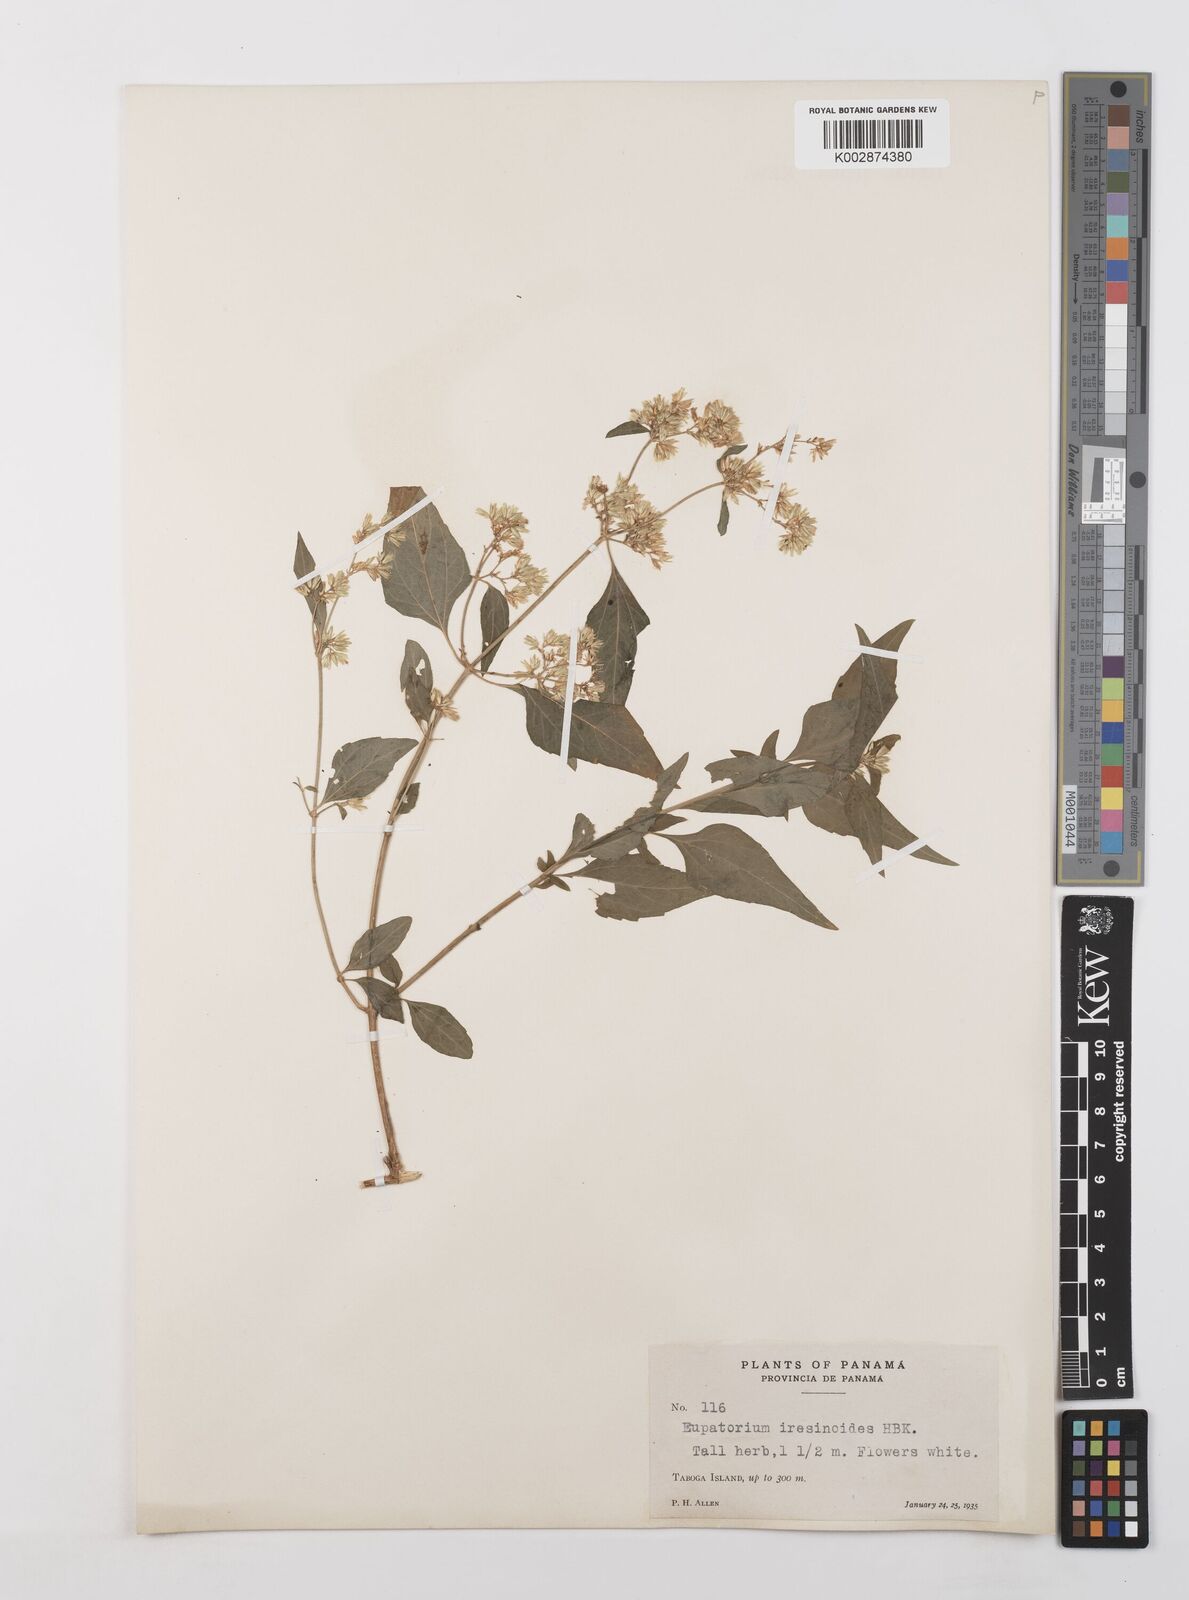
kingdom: Plantae
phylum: Tracheophyta
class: Magnoliopsida
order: Asterales
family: Asteraceae
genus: Condylidium
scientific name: Condylidium iresinoides
